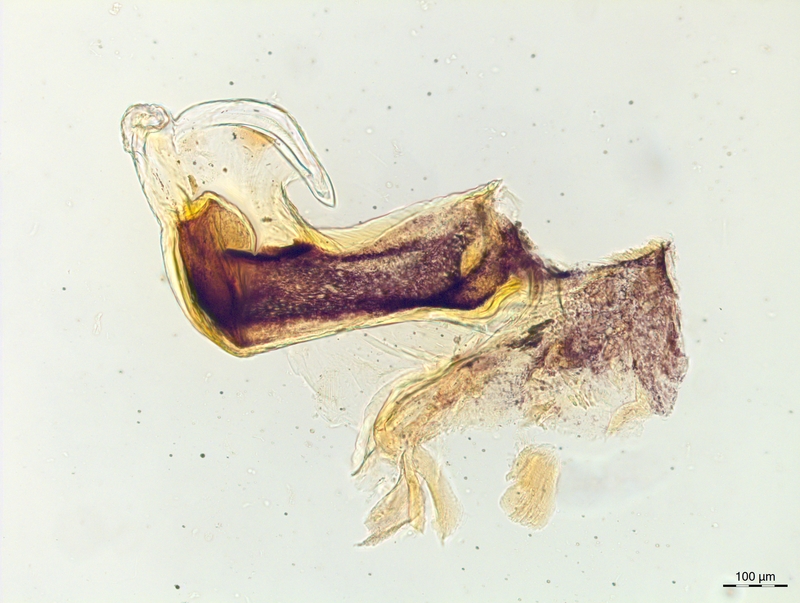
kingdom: Animalia
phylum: Arthropoda
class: Diplopoda
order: Chordeumatida
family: Craspedosomatidae
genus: Craspedosoma
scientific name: Craspedosoma slavum
